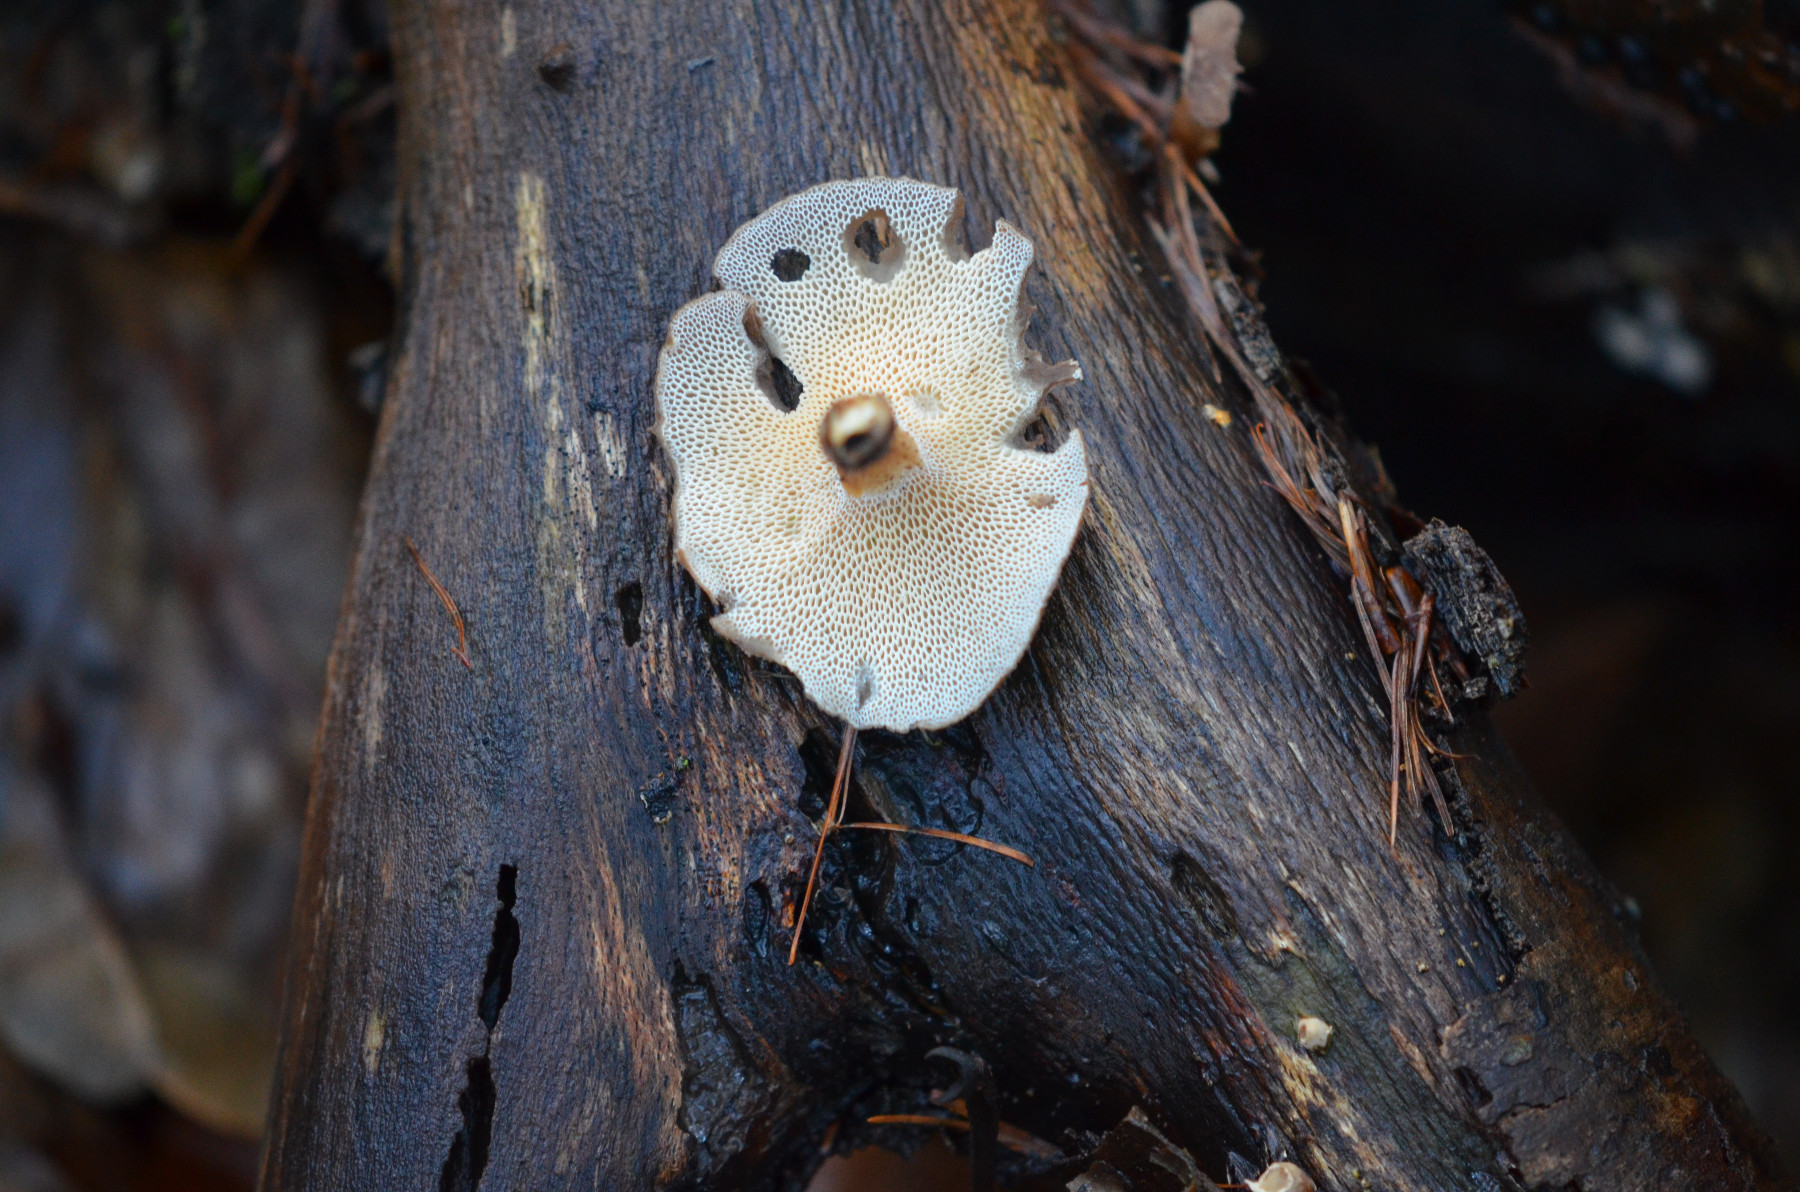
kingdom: Fungi
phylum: Basidiomycota
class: Agaricomycetes
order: Polyporales
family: Polyporaceae
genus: Lentinus
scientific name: Lentinus brumalis
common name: vinter-stilkporesvamp
